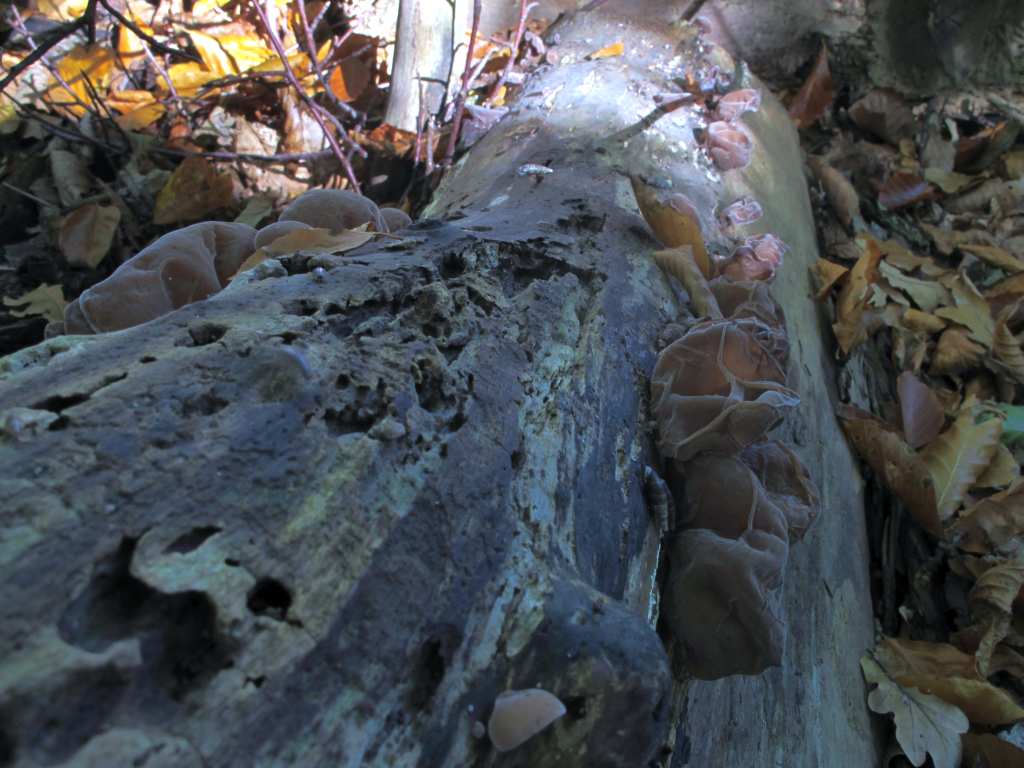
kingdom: Fungi
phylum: Basidiomycota
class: Agaricomycetes
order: Auriculariales
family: Auriculariaceae
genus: Auricularia
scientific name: Auricularia auricula-judae
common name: almindelig judasøre
